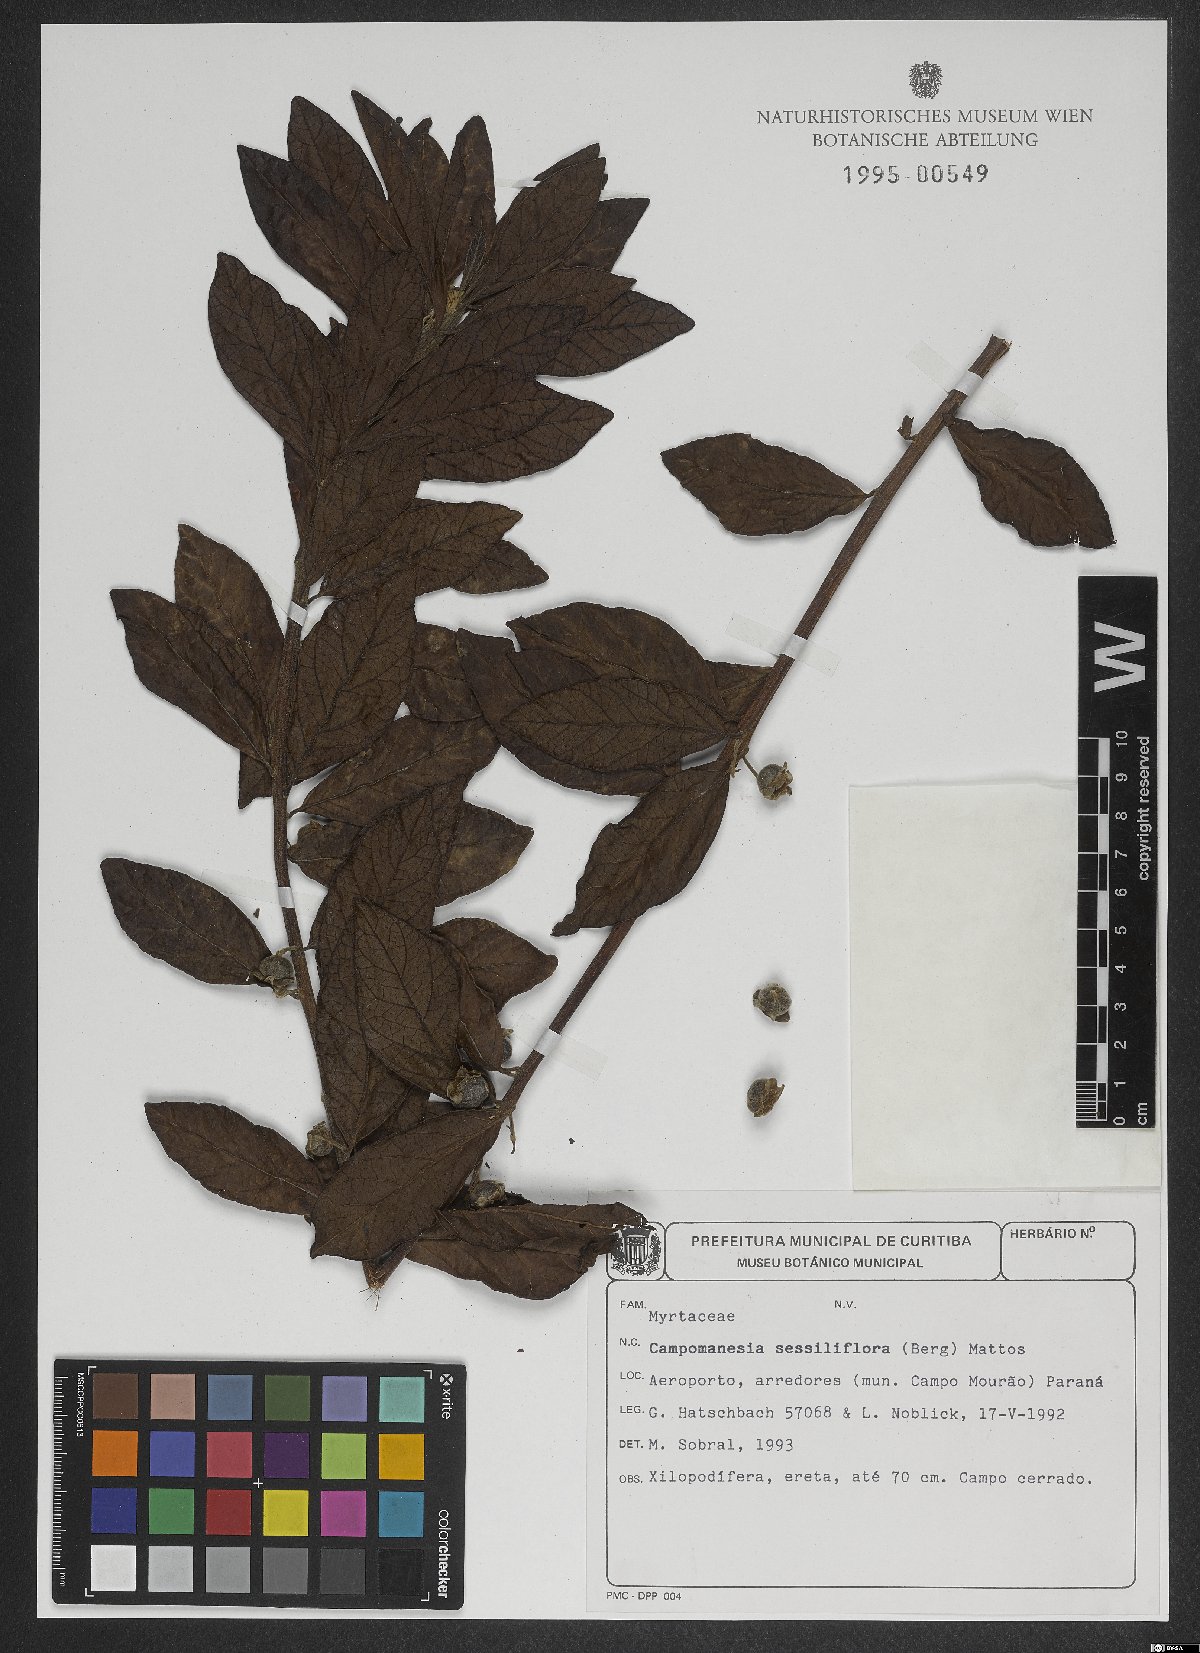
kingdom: Plantae
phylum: Tracheophyta
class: Magnoliopsida
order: Myrtales
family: Myrtaceae
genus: Campomanesia
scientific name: Campomanesia sessiliflora
